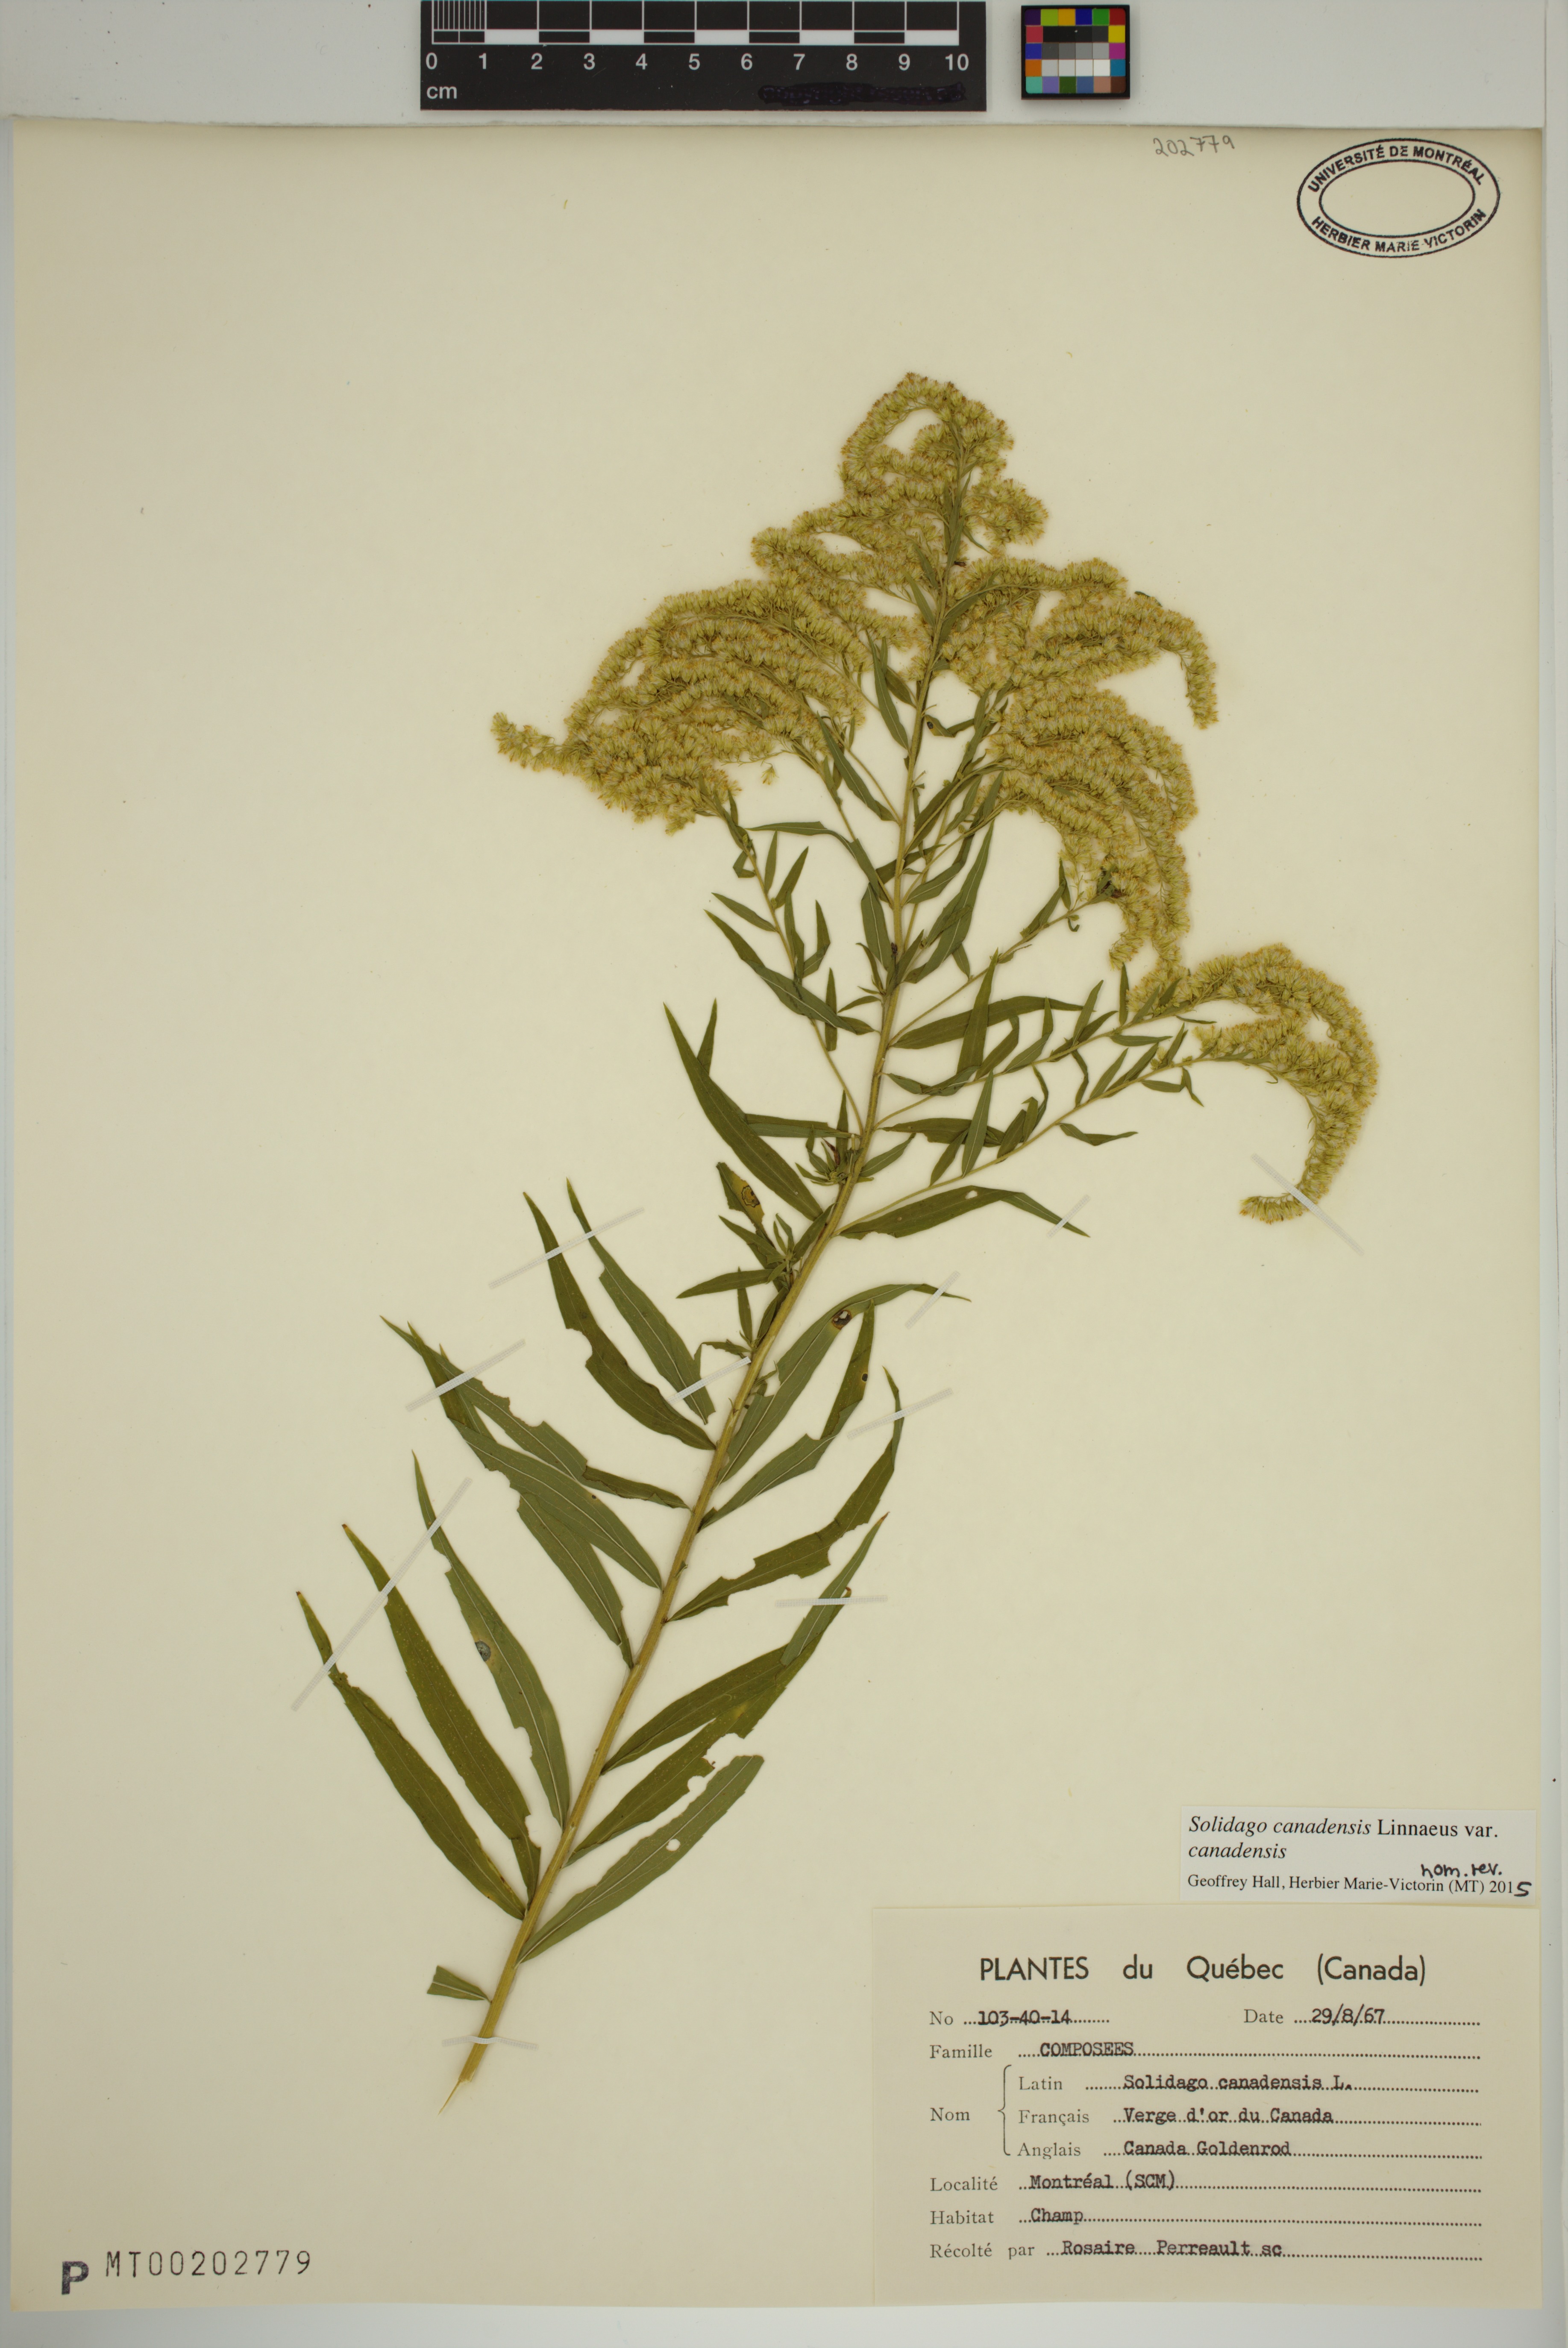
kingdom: Plantae
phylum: Tracheophyta
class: Magnoliopsida
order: Asterales
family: Asteraceae
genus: Solidago
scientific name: Solidago canadensis
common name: Canada goldenrod
